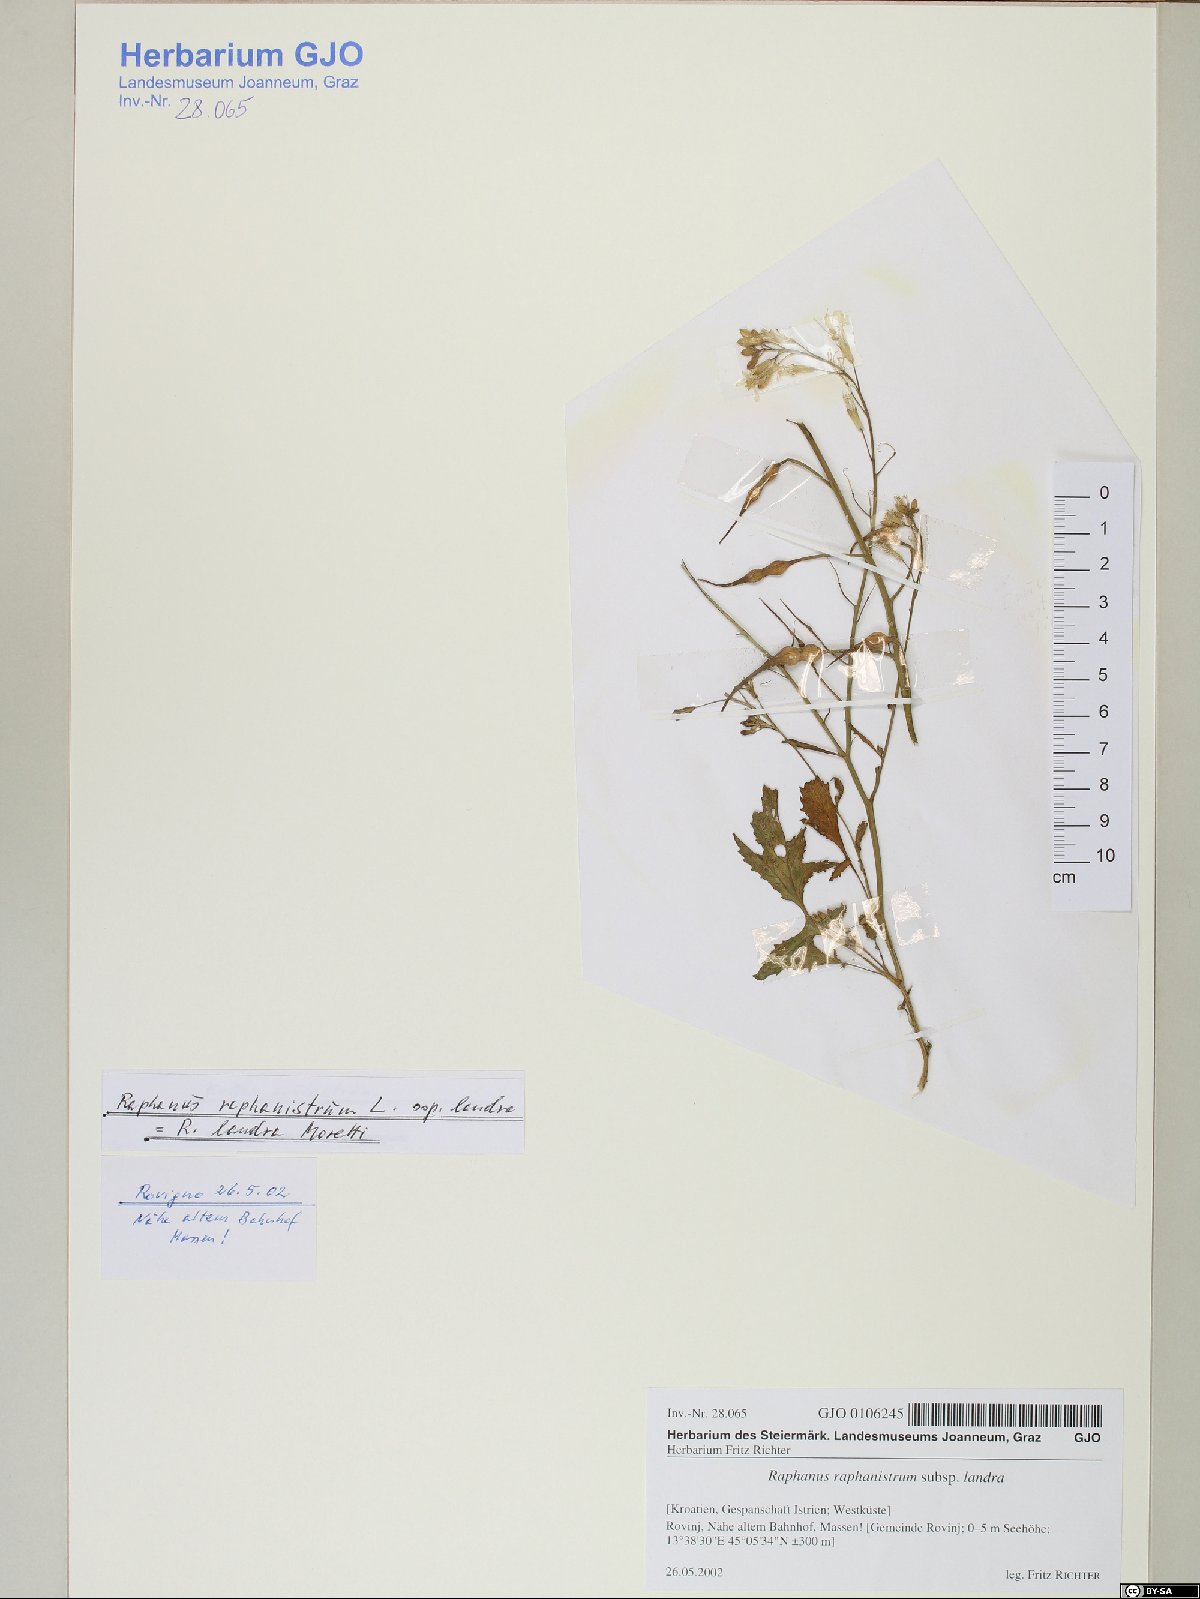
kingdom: Plantae
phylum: Tracheophyta
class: Magnoliopsida
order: Brassicales
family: Brassicaceae
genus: Raphanus
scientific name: Raphanus raphanistrum
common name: Wild radish
